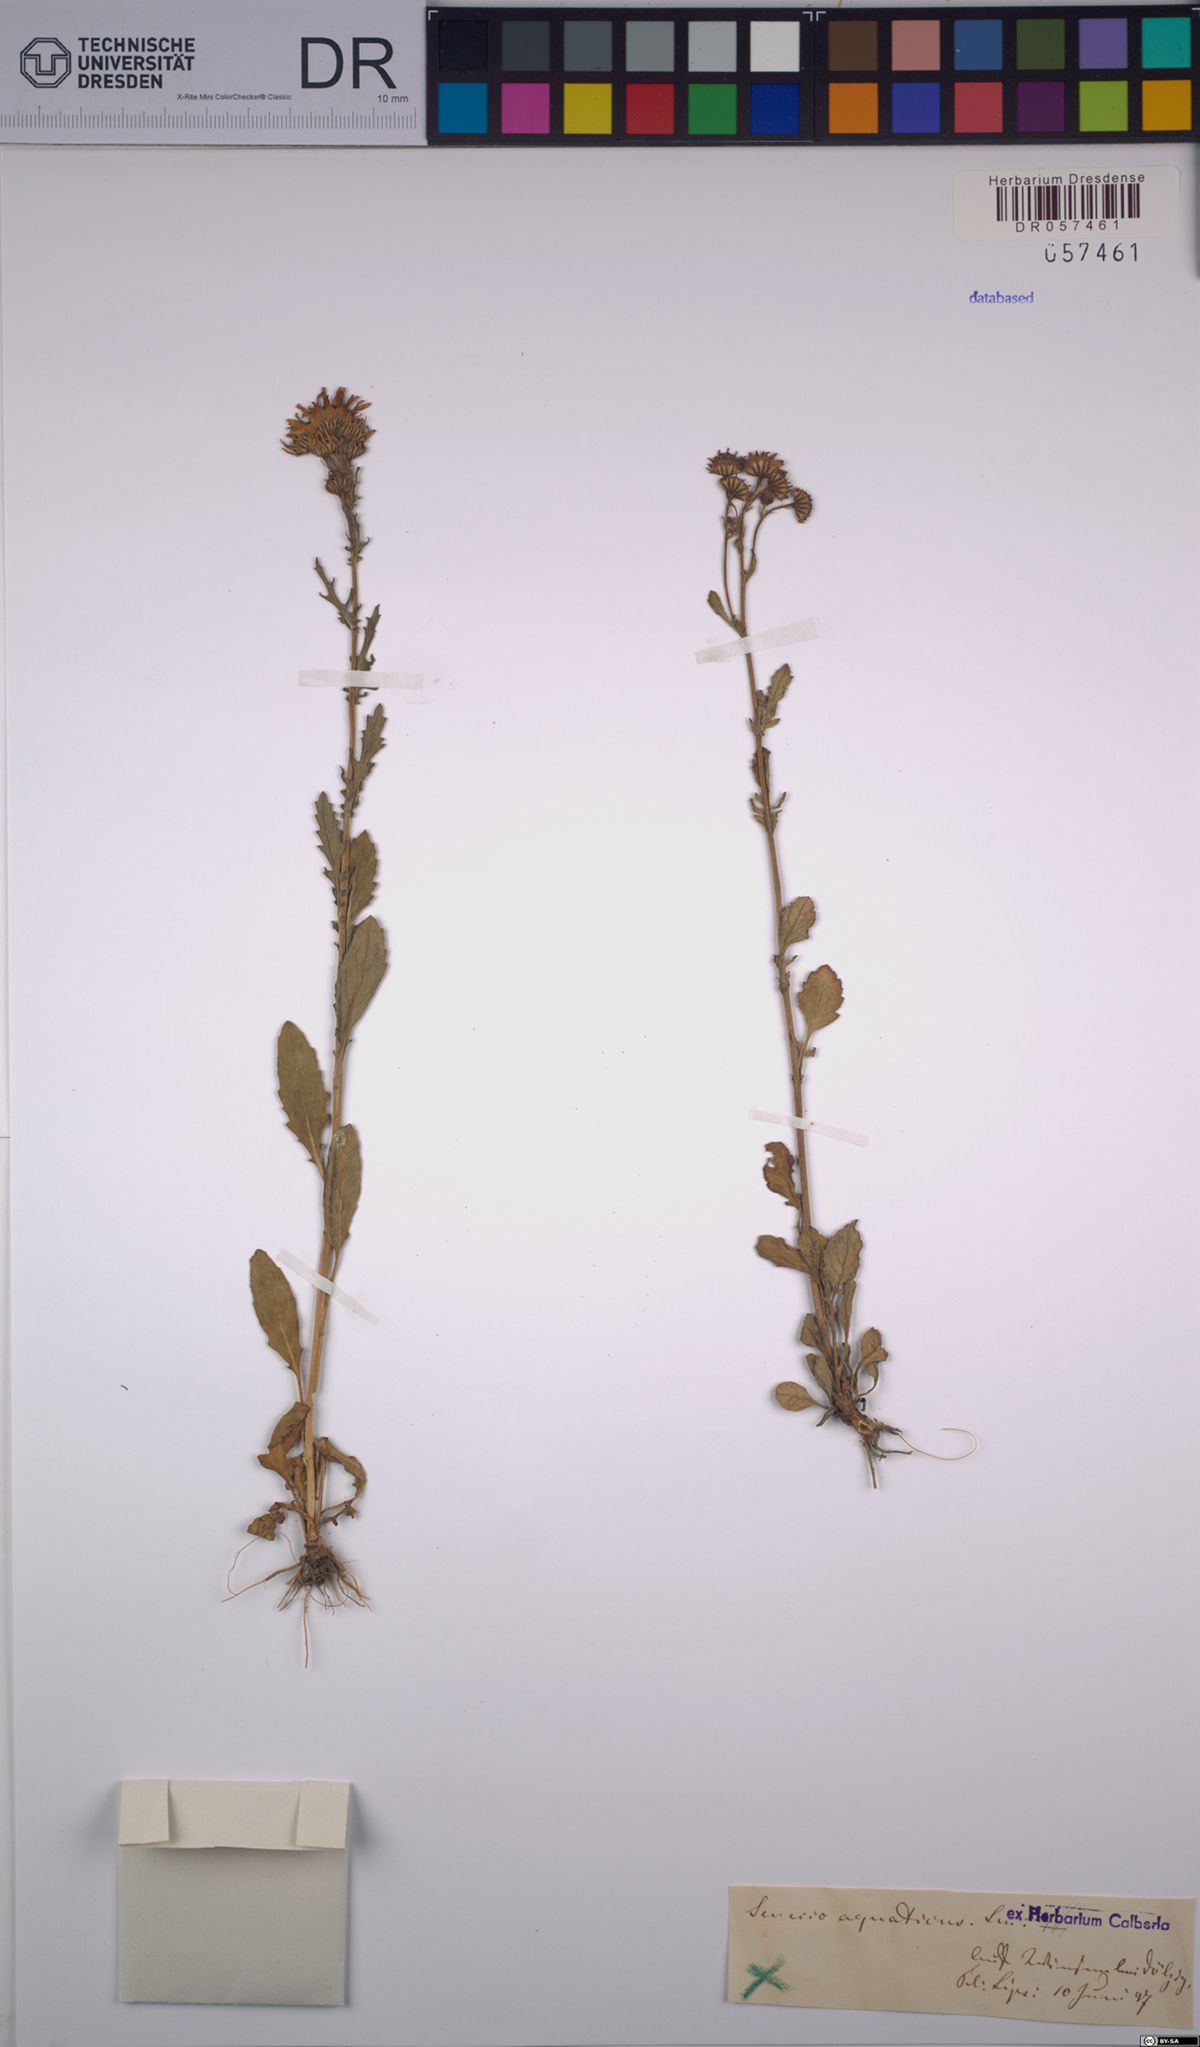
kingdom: Plantae
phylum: Tracheophyta
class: Magnoliopsida
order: Asterales
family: Asteraceae
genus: Jacobaea
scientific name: Jacobaea aquatica
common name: Water ragwort
